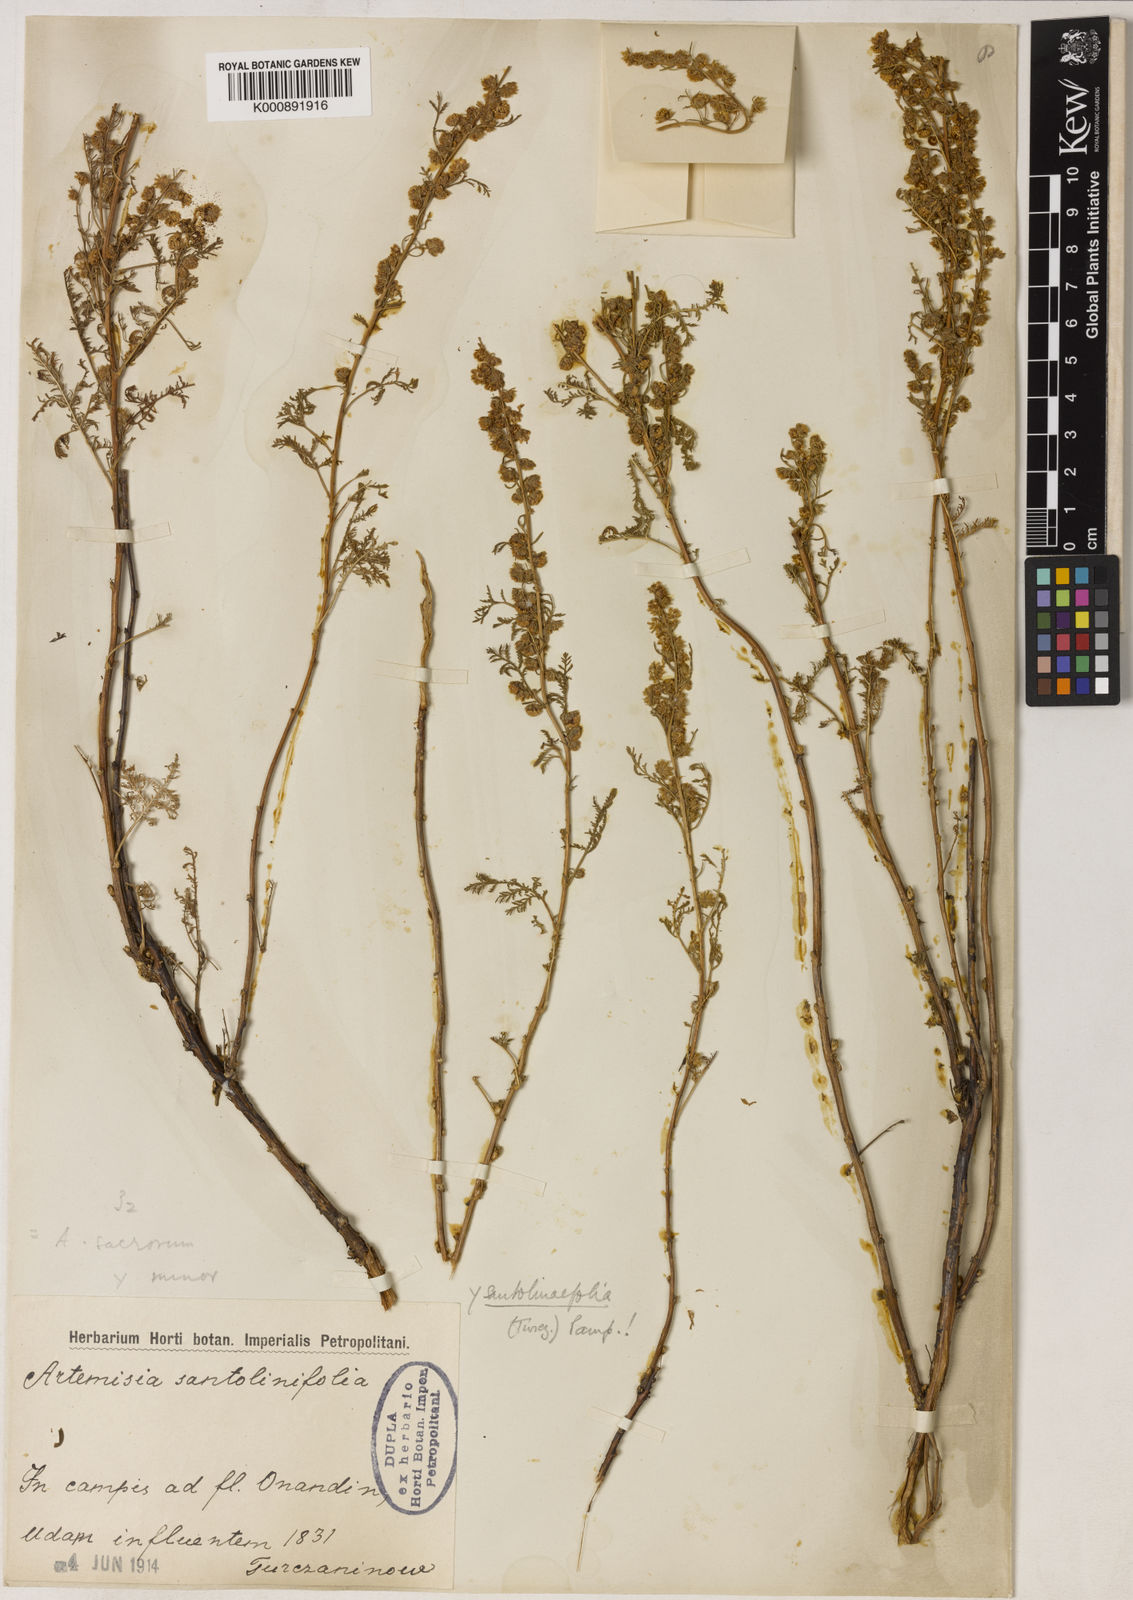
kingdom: Plantae
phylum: Tracheophyta
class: Magnoliopsida
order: Asterales
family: Asteraceae
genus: Artemisia
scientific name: Artemisia lagopus
